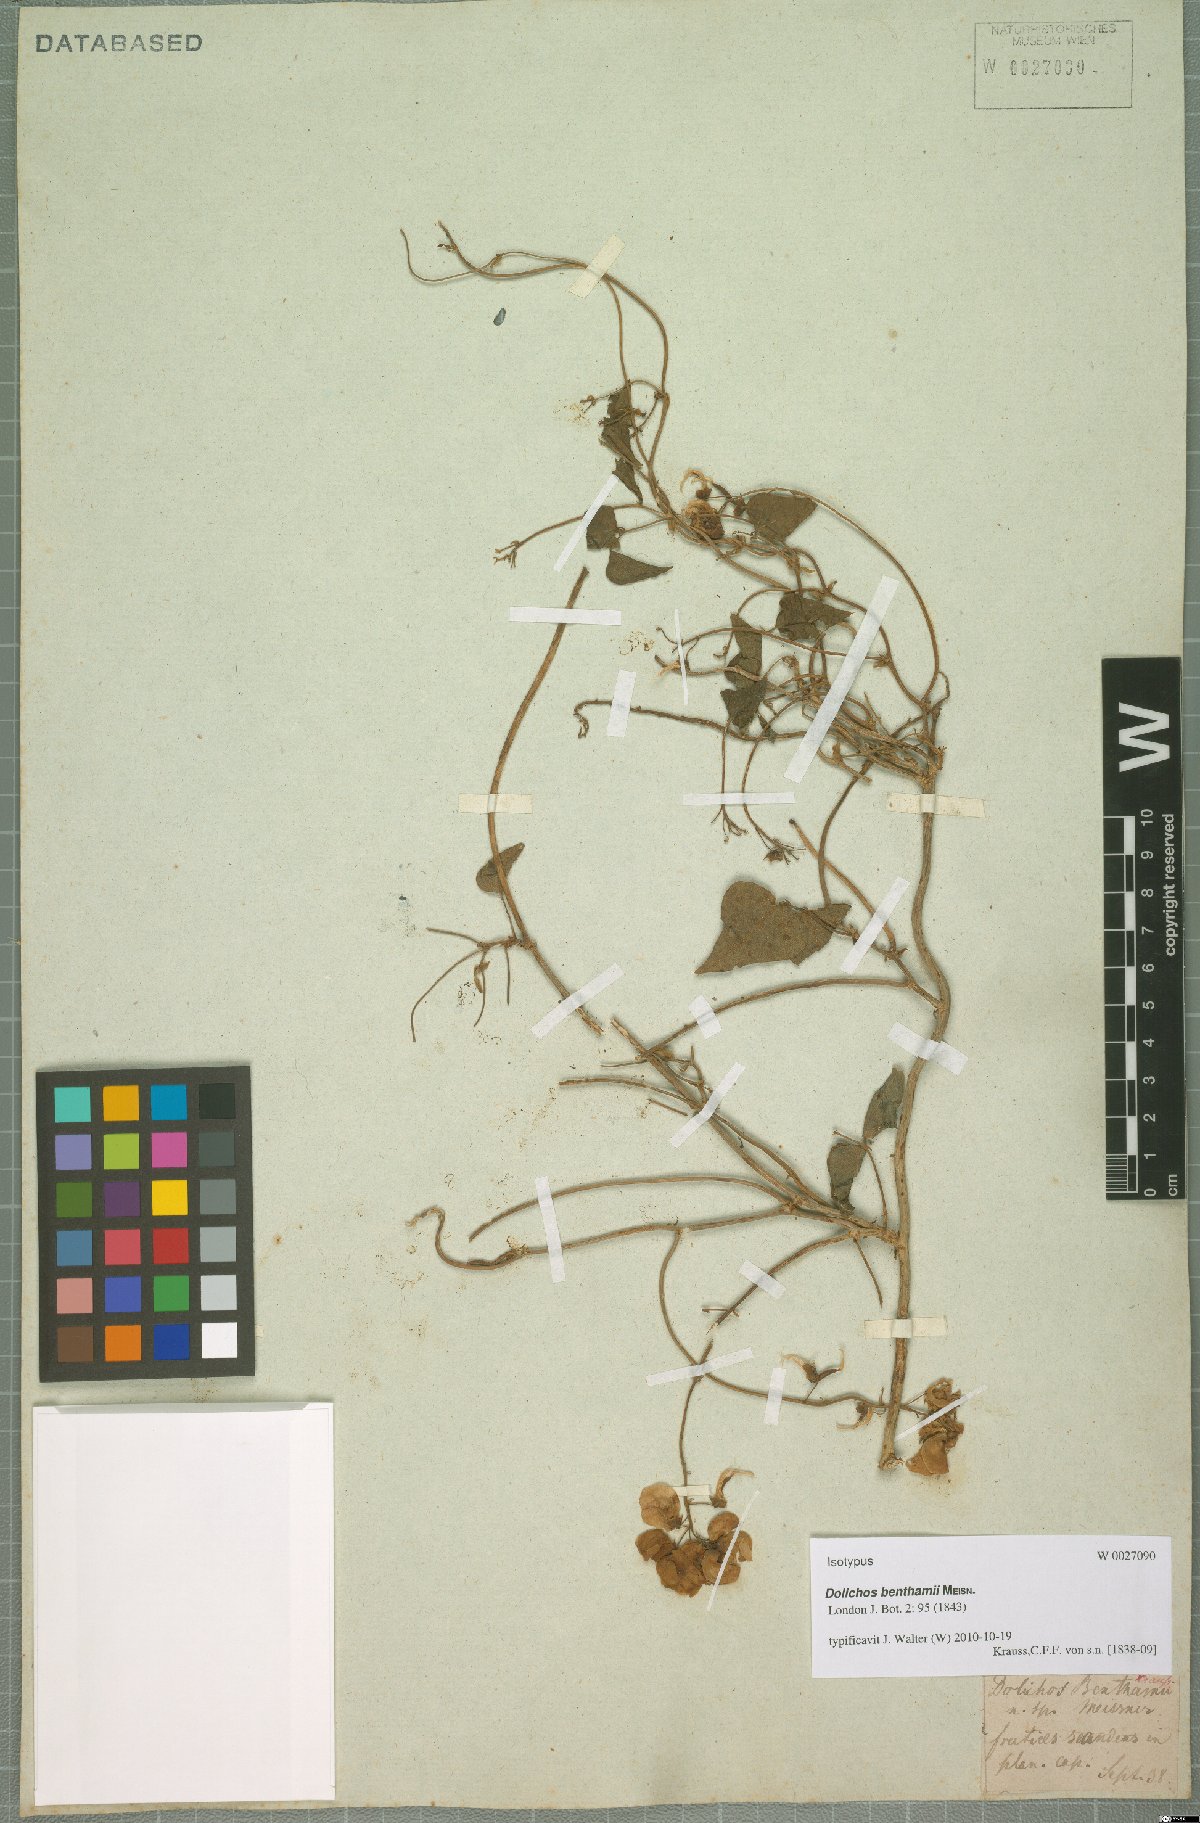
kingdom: Plantae
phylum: Tracheophyta
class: Magnoliopsida
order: Fabales
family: Fabaceae
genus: Dipogon
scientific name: Dipogon lignosus
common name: Okie bean
